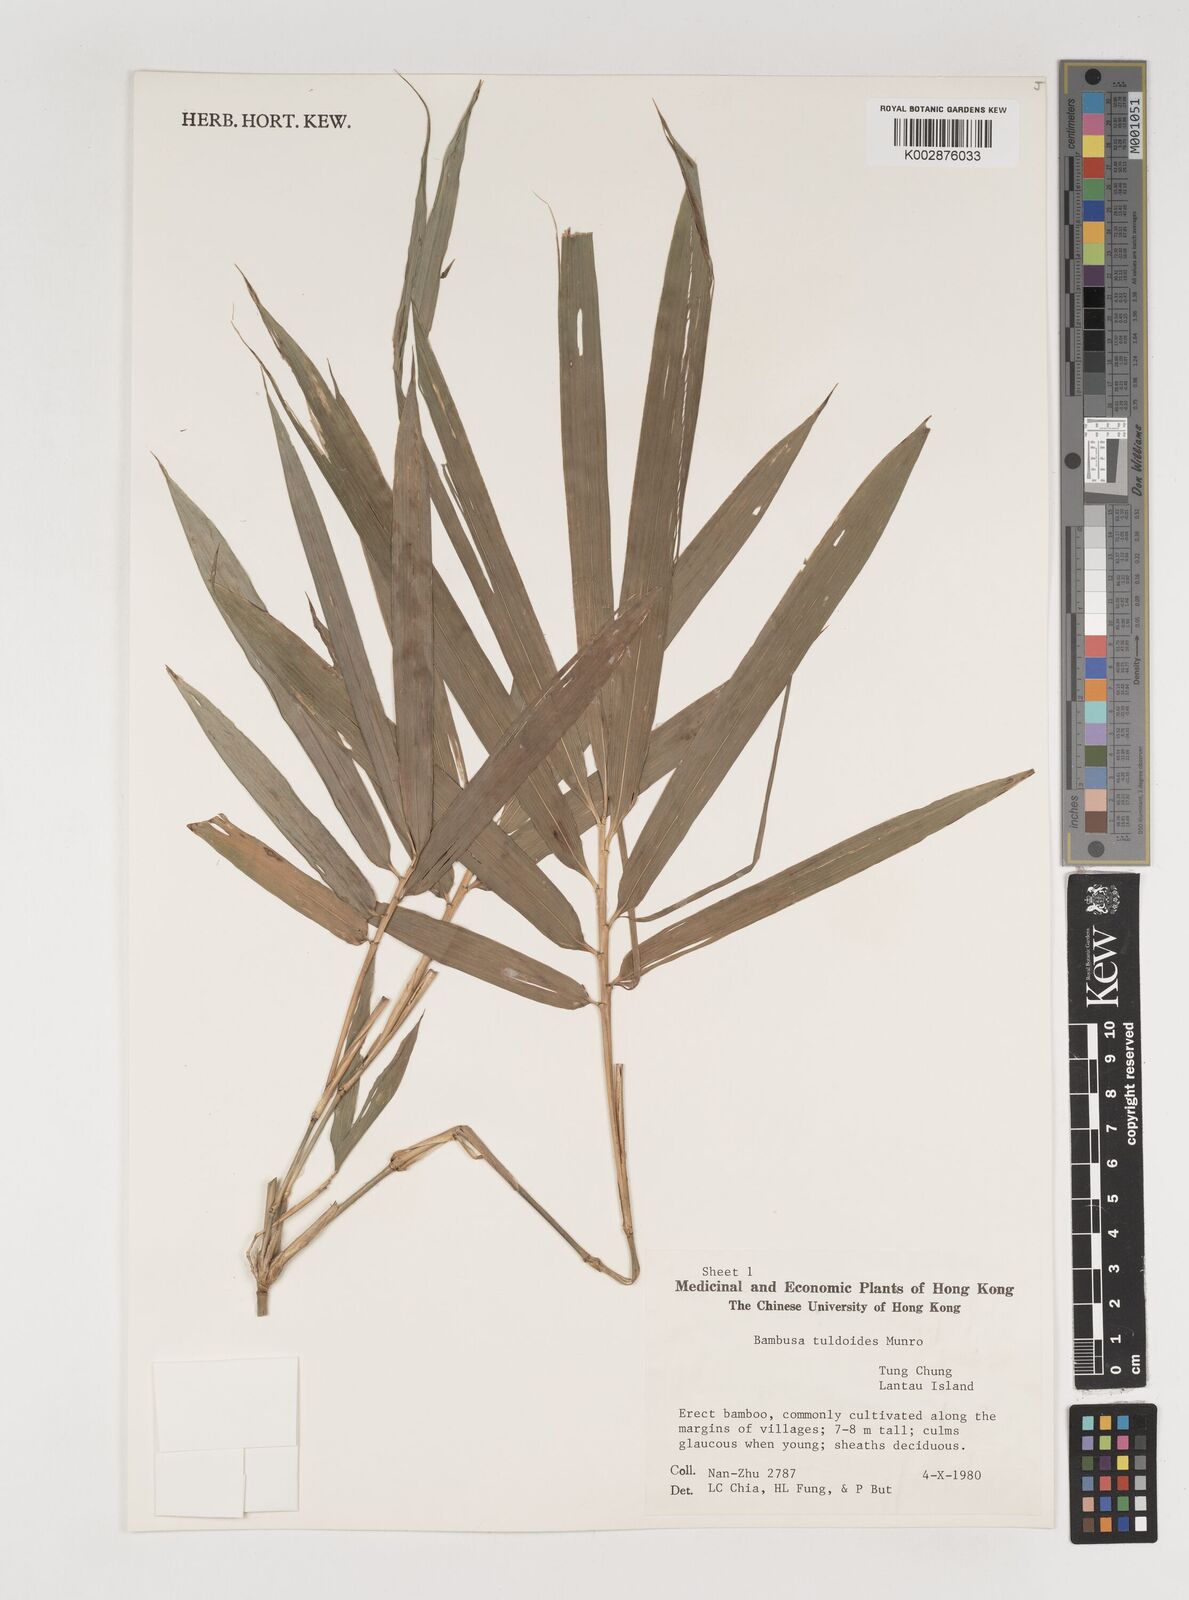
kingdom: Plantae
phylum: Tracheophyta
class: Liliopsida
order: Poales
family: Poaceae
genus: Bambusa
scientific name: Bambusa tuldoides
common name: Verdant bamboo
